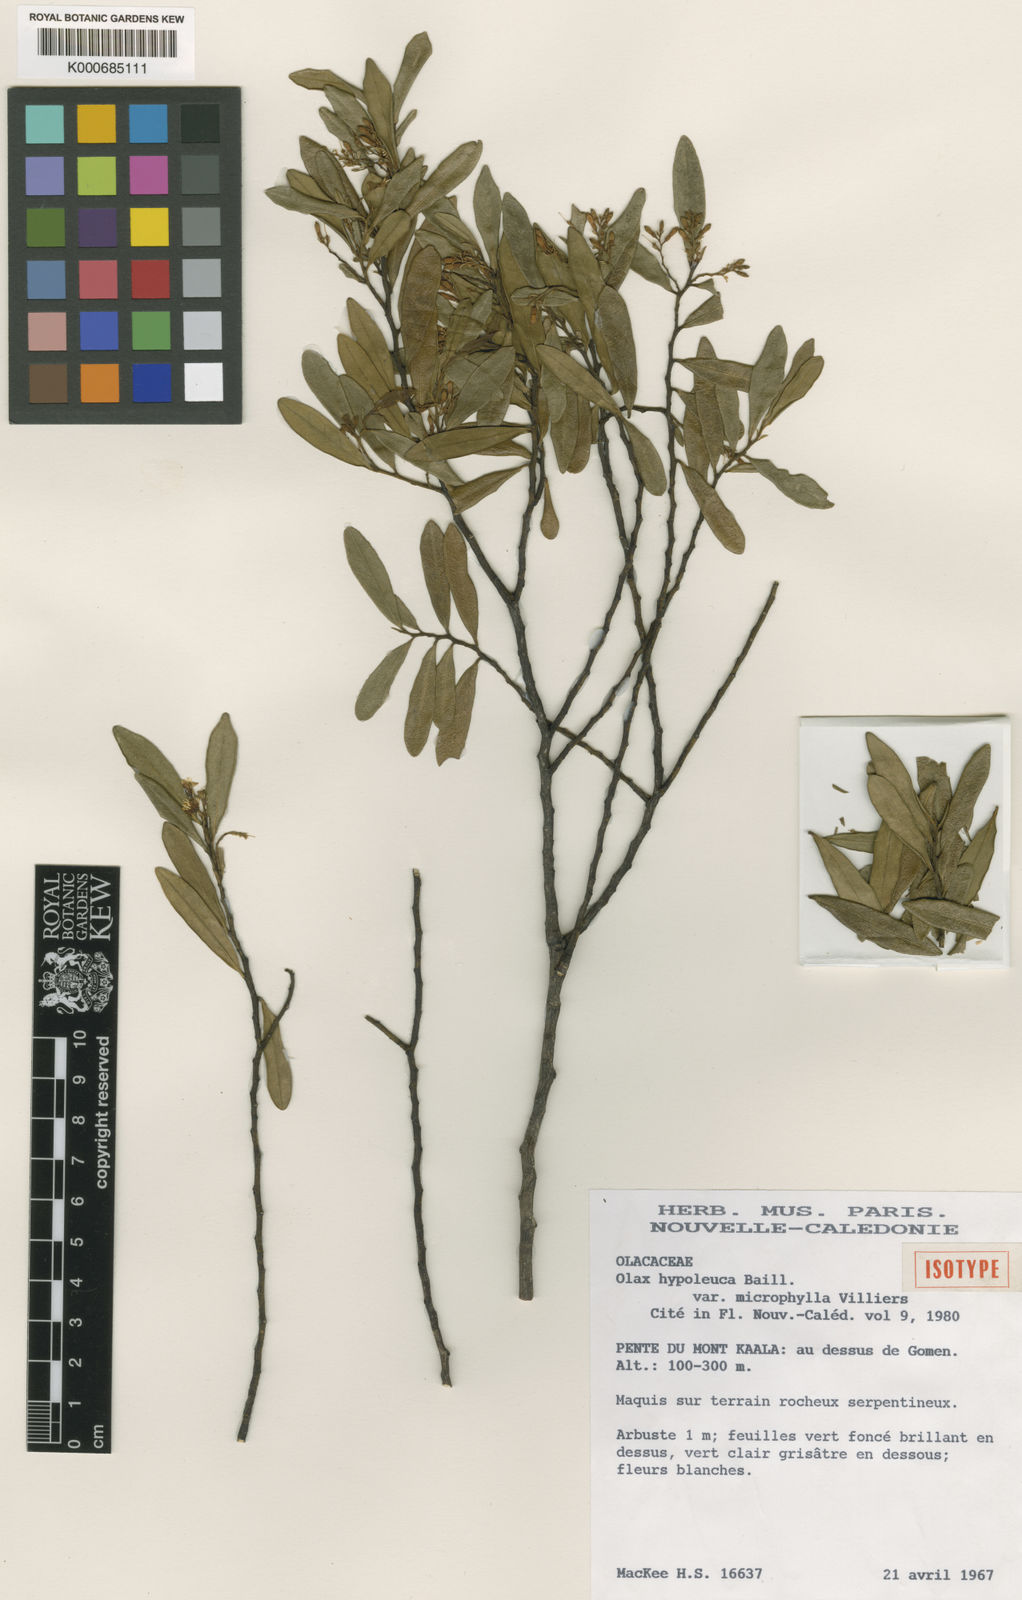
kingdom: Plantae
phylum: Tracheophyta
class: Magnoliopsida
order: Santalales
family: Olacaceae
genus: Olax
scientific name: Olax hypoleuca
